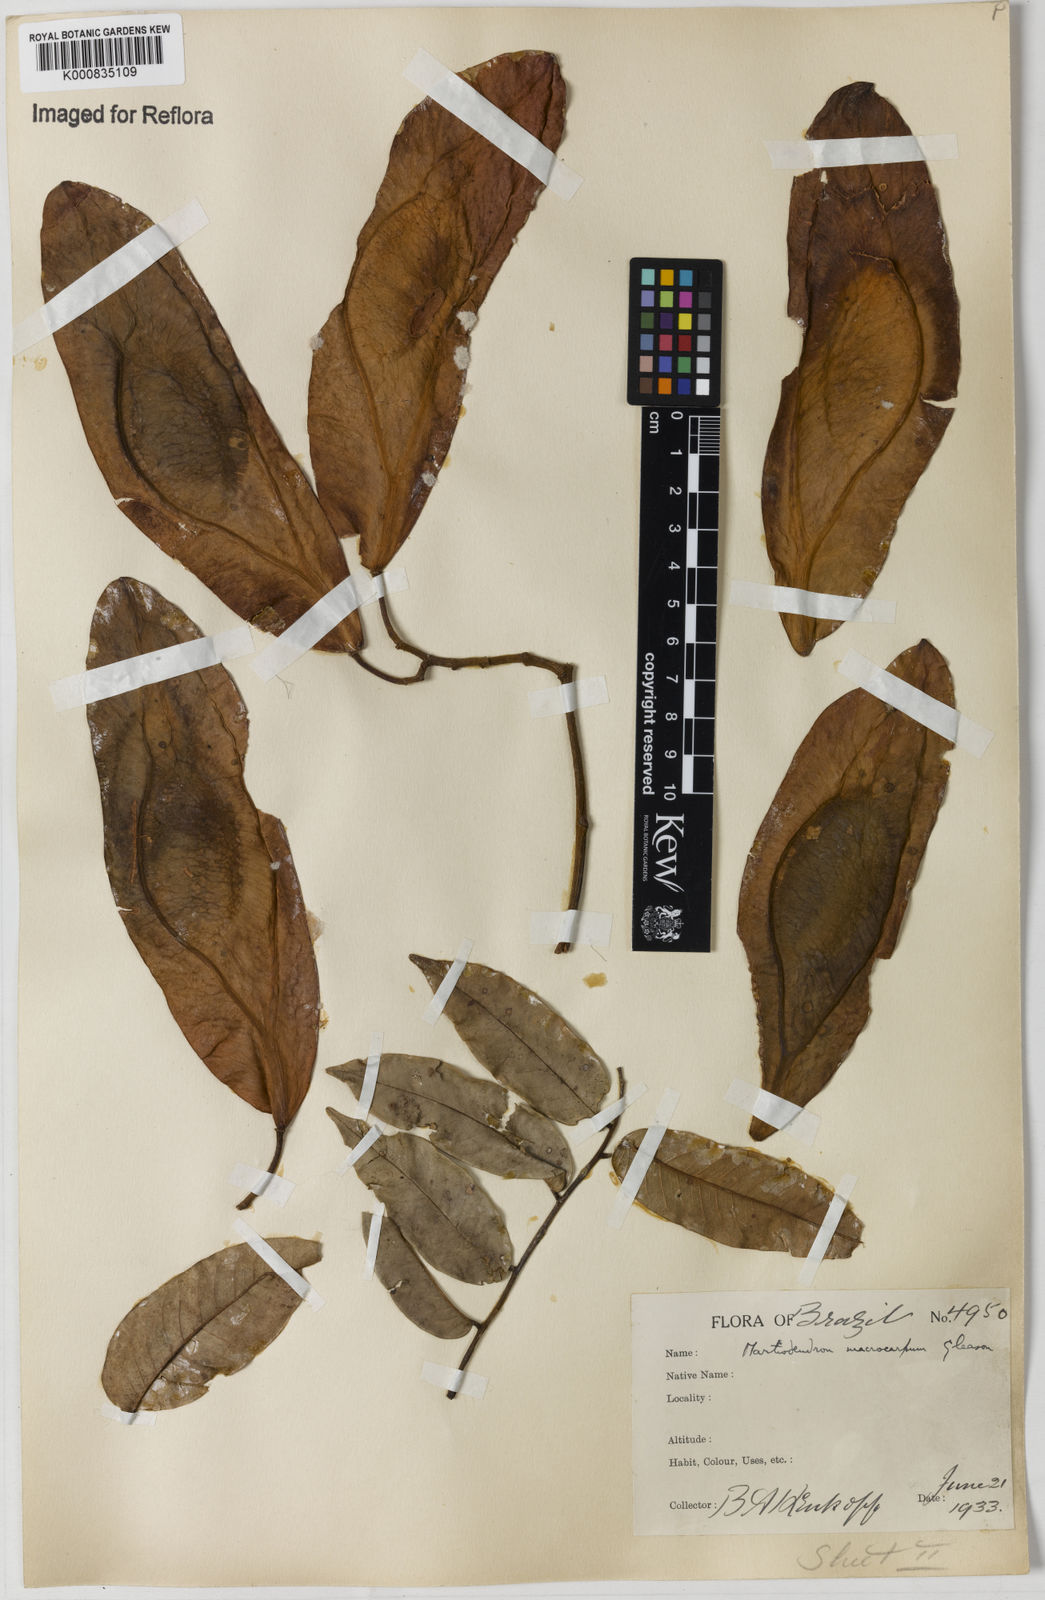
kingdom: Plantae
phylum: Tracheophyta
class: Magnoliopsida
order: Fabales
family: Fabaceae
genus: Martiodendron
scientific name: Martiodendron elatum
